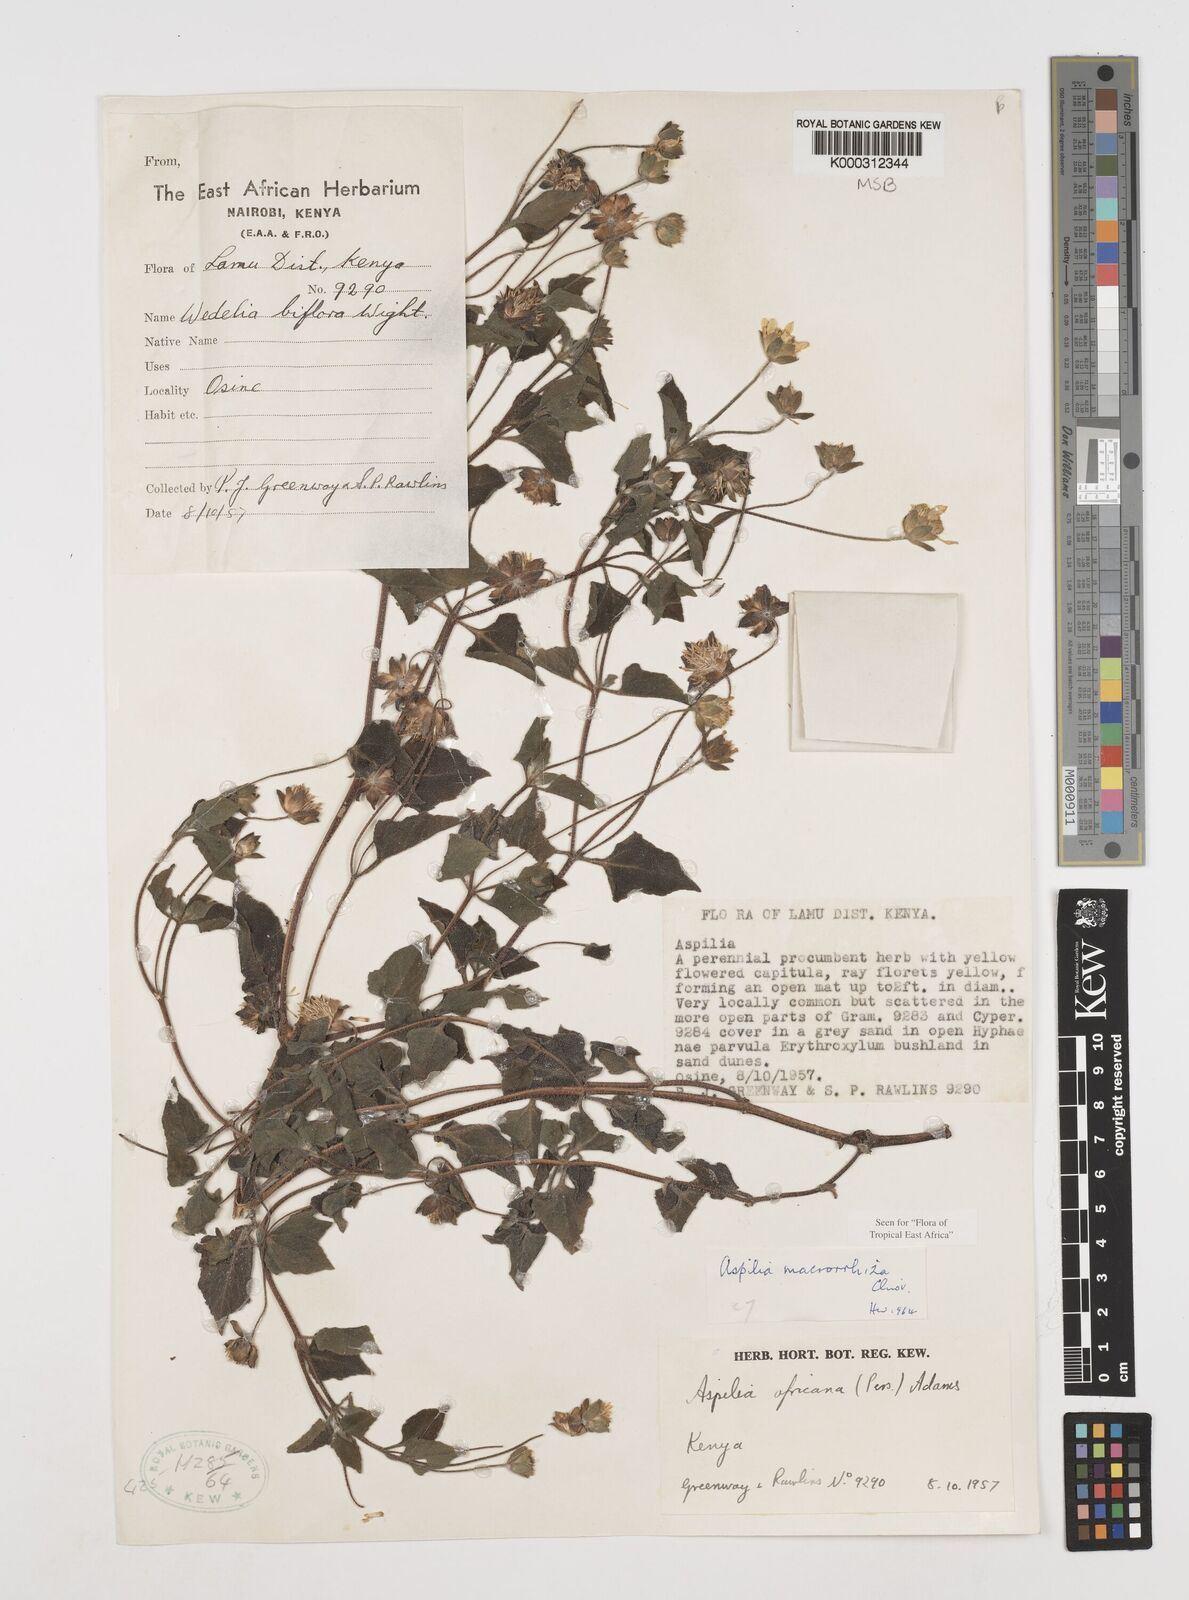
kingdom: Plantae
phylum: Tracheophyta
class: Magnoliopsida
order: Asterales
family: Asteraceae
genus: Aspilia
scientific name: Aspilia macrorrhiza
